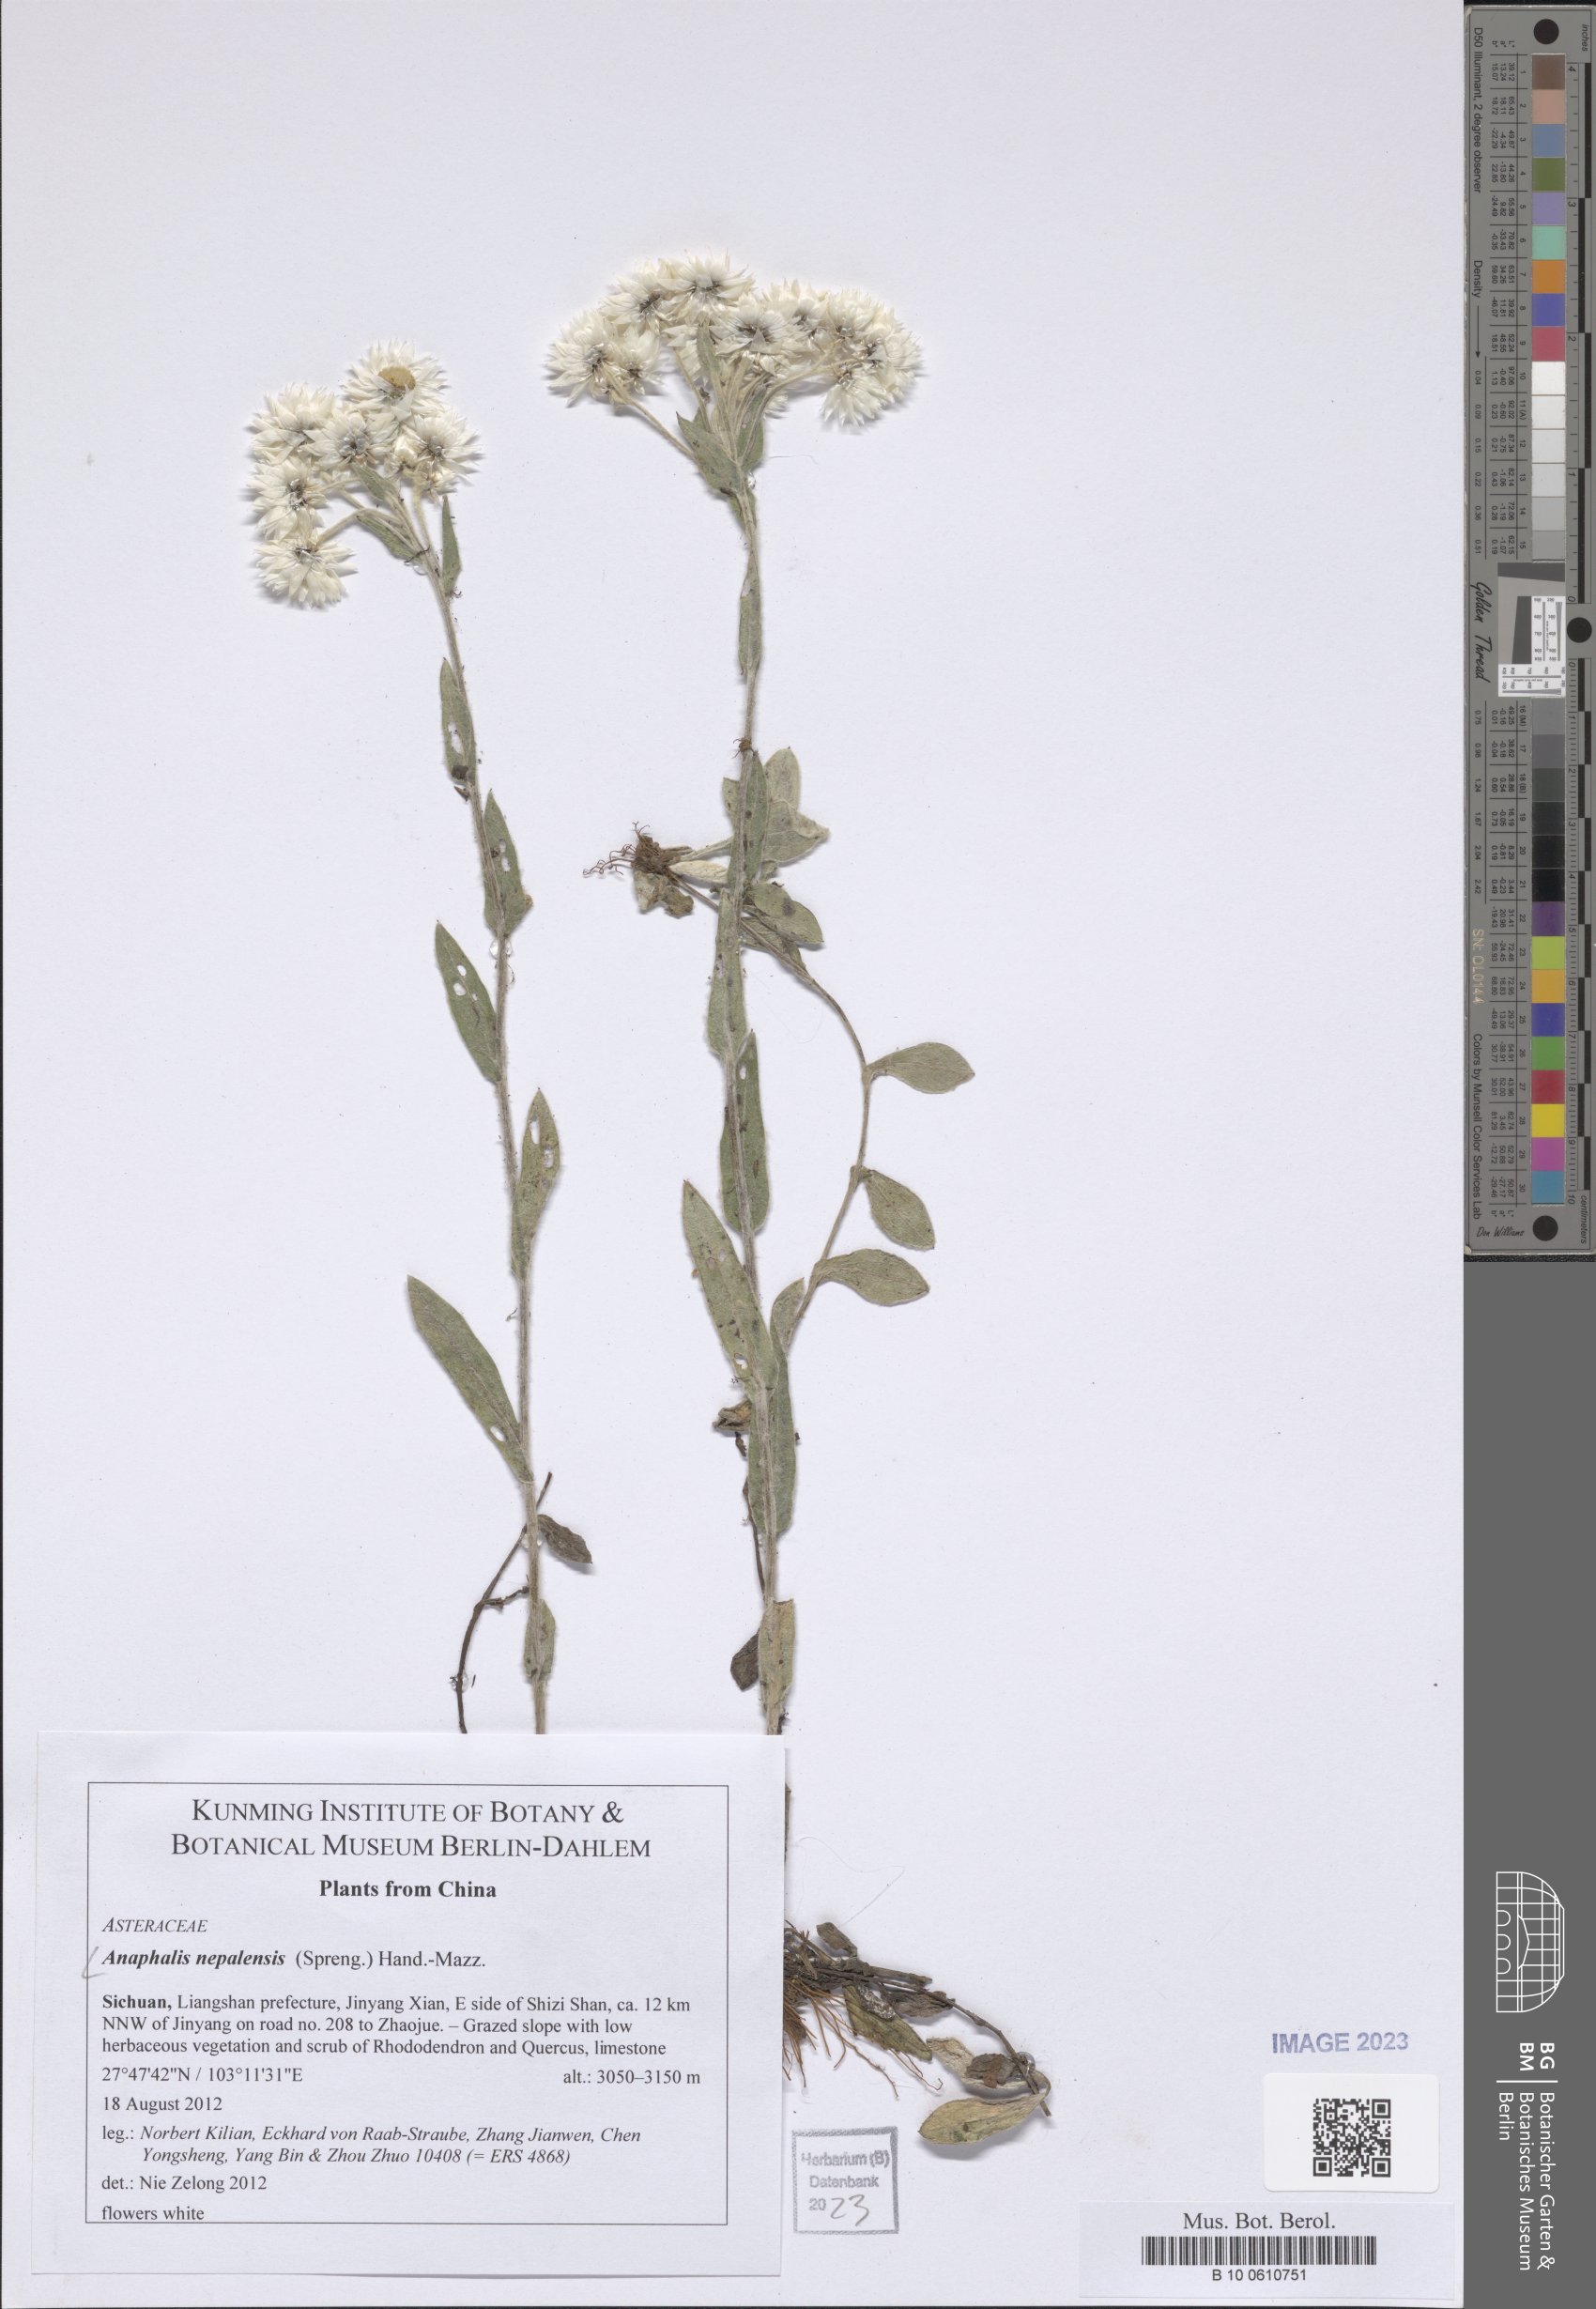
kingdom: Plantae
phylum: Tracheophyta
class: Magnoliopsida
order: Asterales
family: Asteraceae
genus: Anaphalis
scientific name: Anaphalis nepalensis
